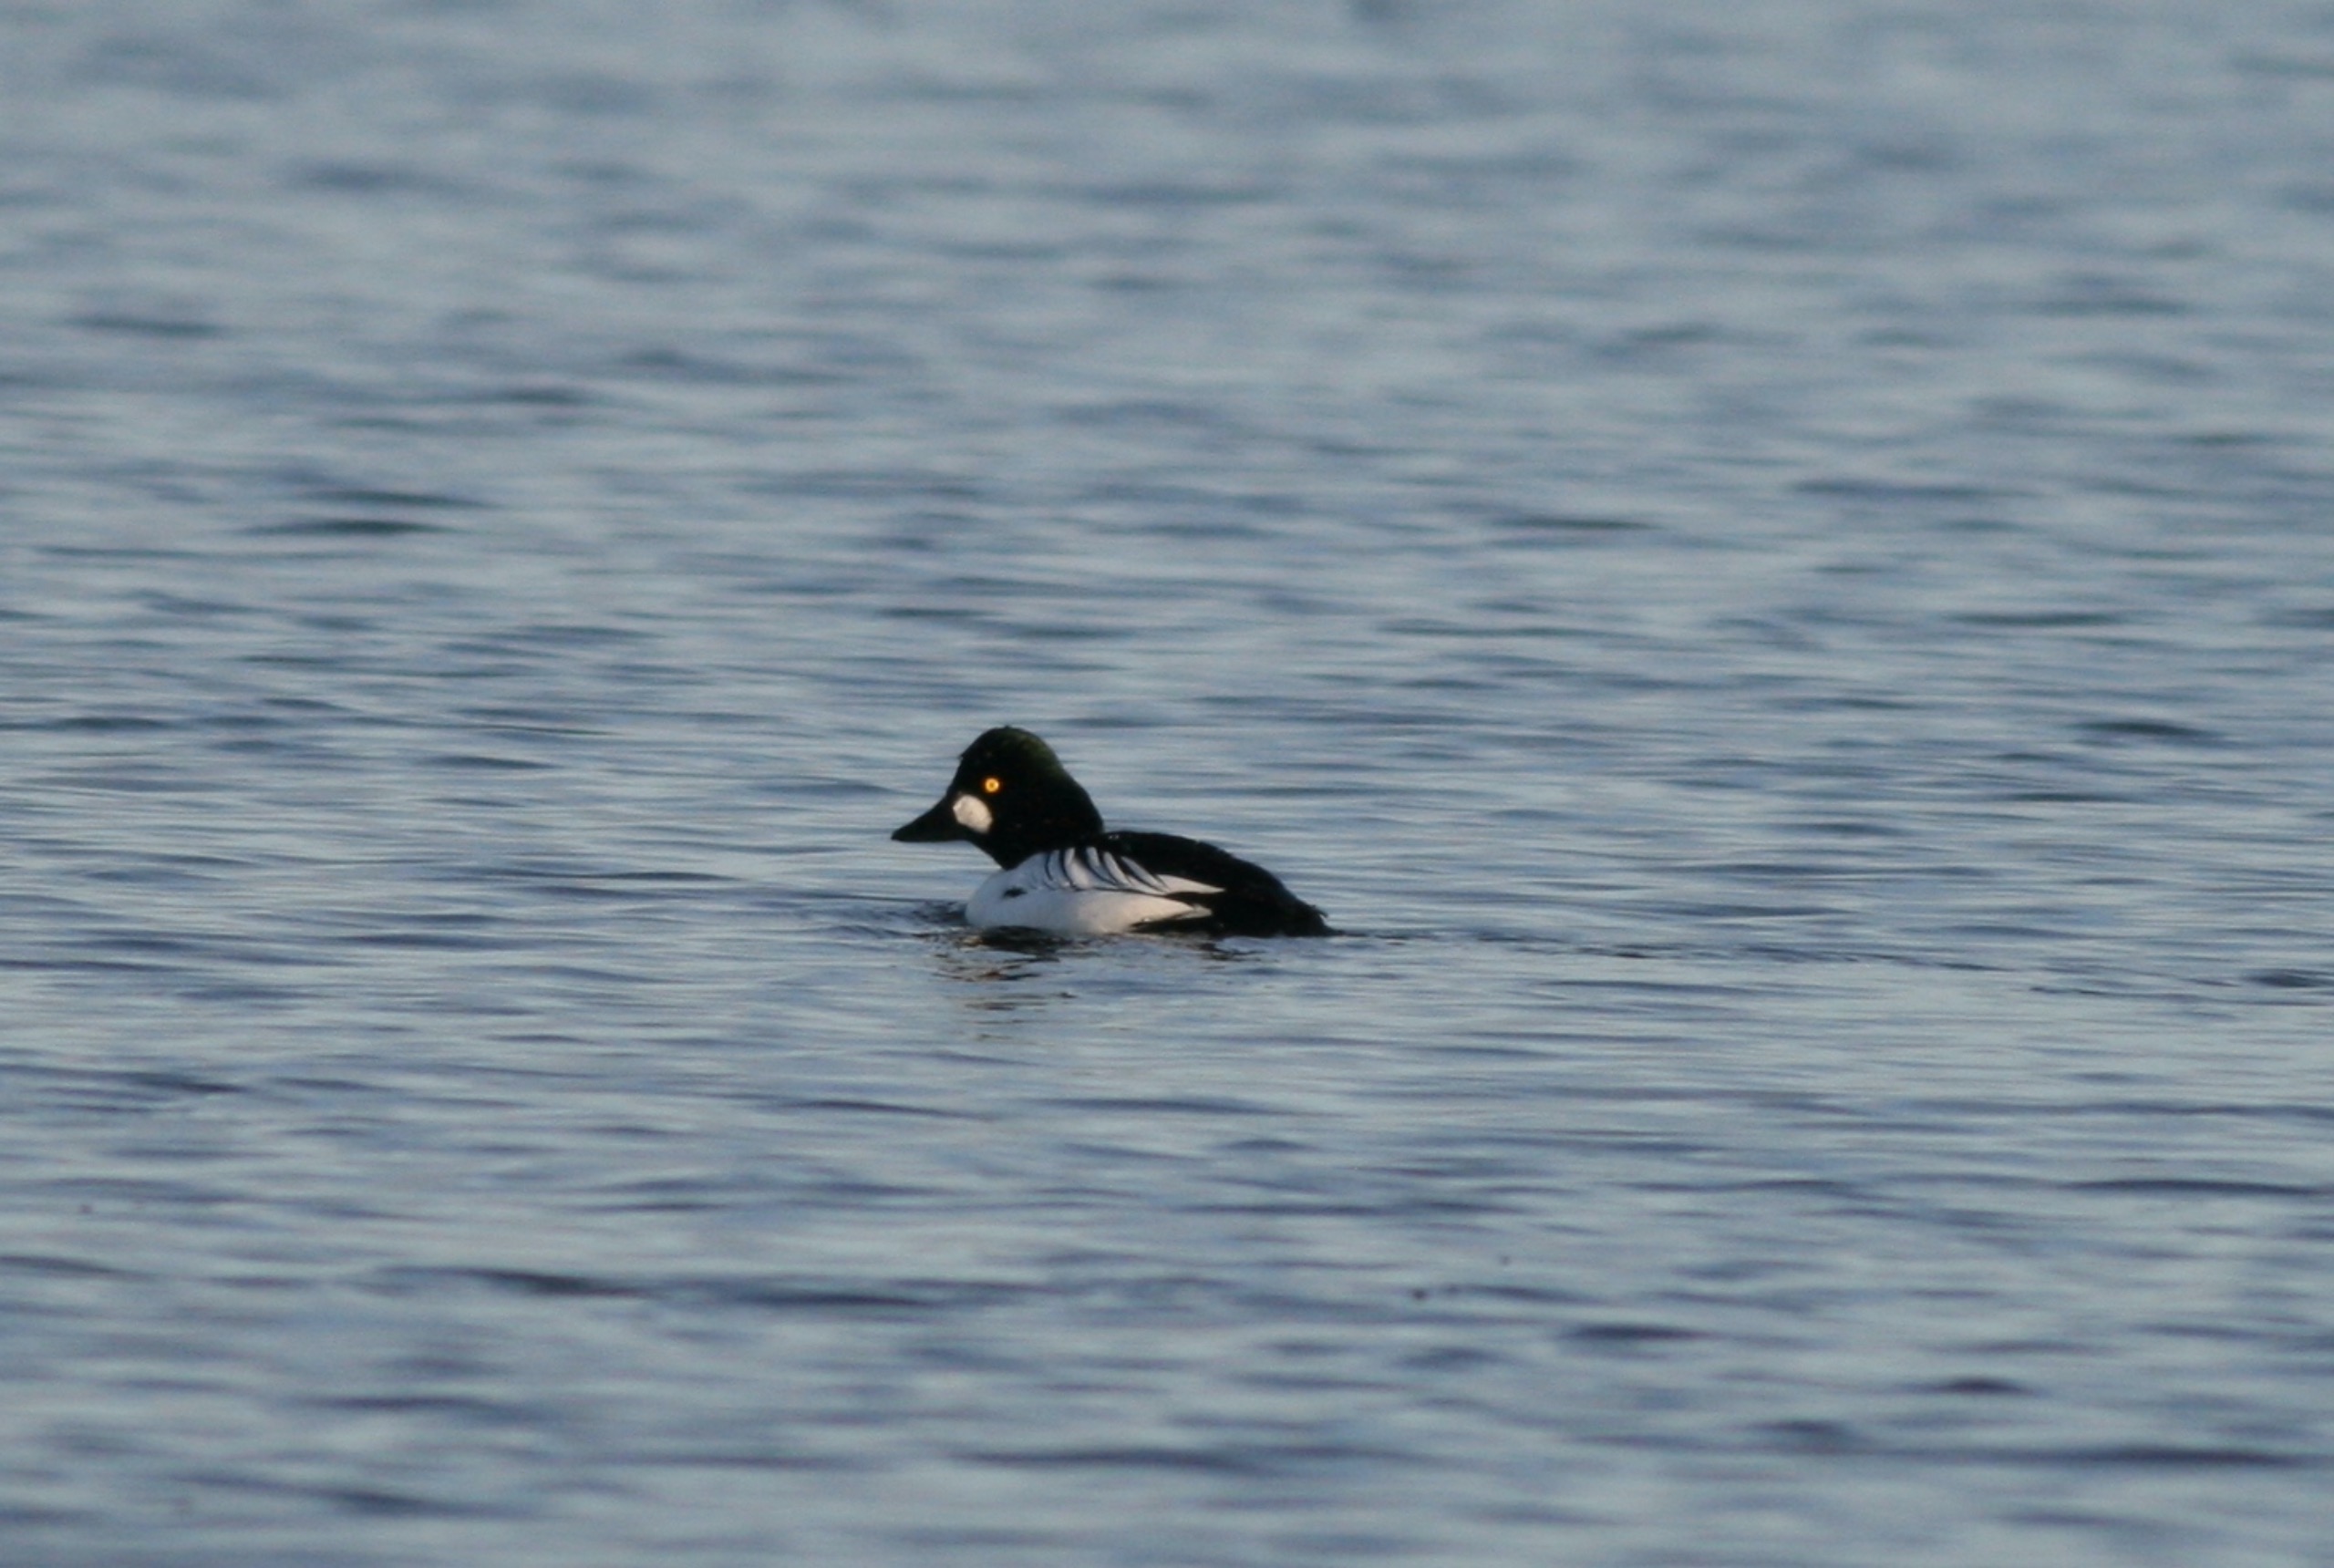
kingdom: Animalia
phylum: Chordata
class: Aves
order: Anseriformes
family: Anatidae
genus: Bucephala
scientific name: Bucephala clangula
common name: Hvinand
